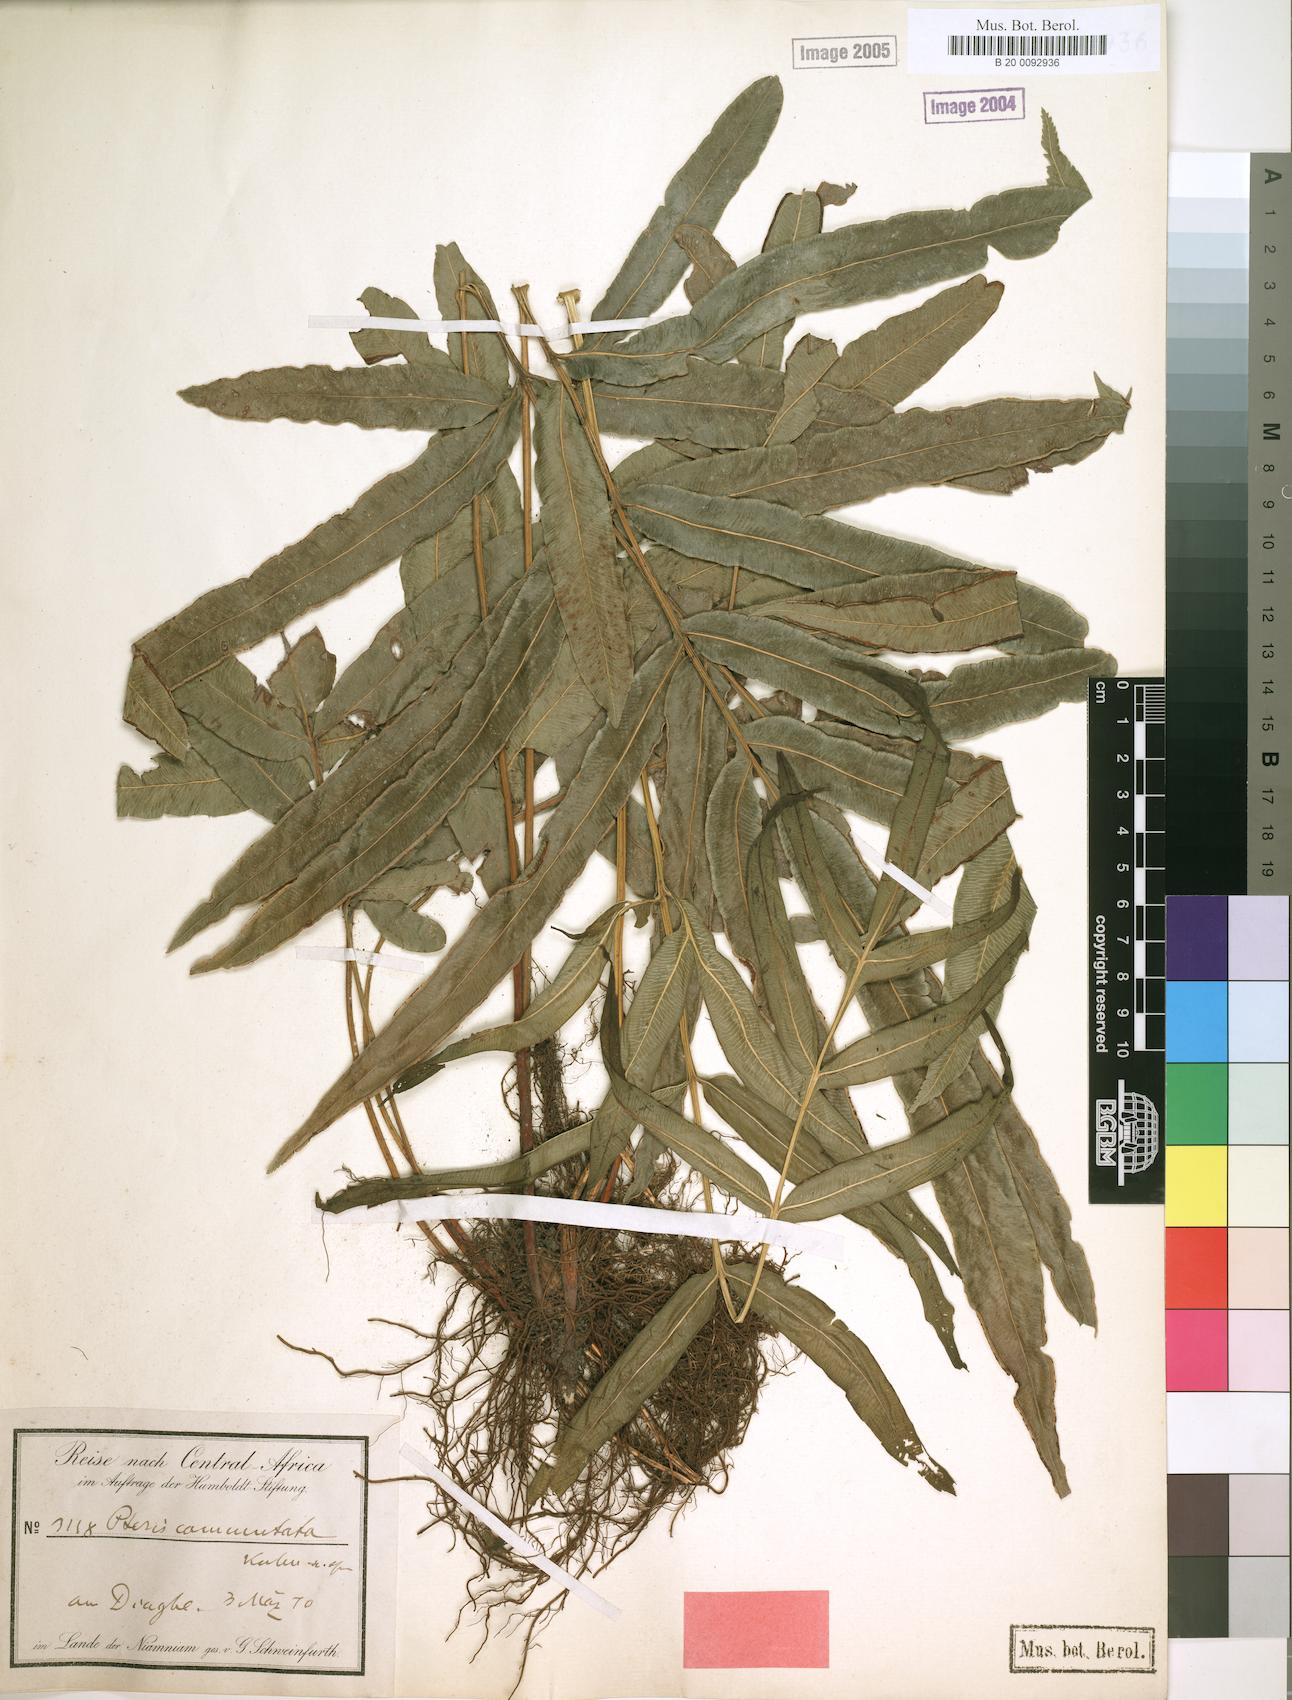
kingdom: Plantae
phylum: Tracheophyta
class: Polypodiopsida
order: Polypodiales
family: Pteridaceae
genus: Pteris
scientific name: Pteris commutata
